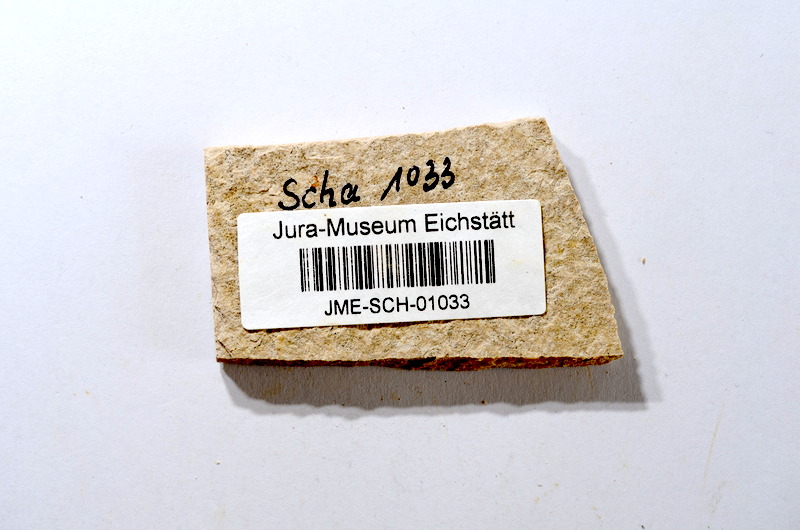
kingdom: Animalia
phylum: Chordata
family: Ascalaboidae
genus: Tharsis
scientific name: Tharsis dubius
